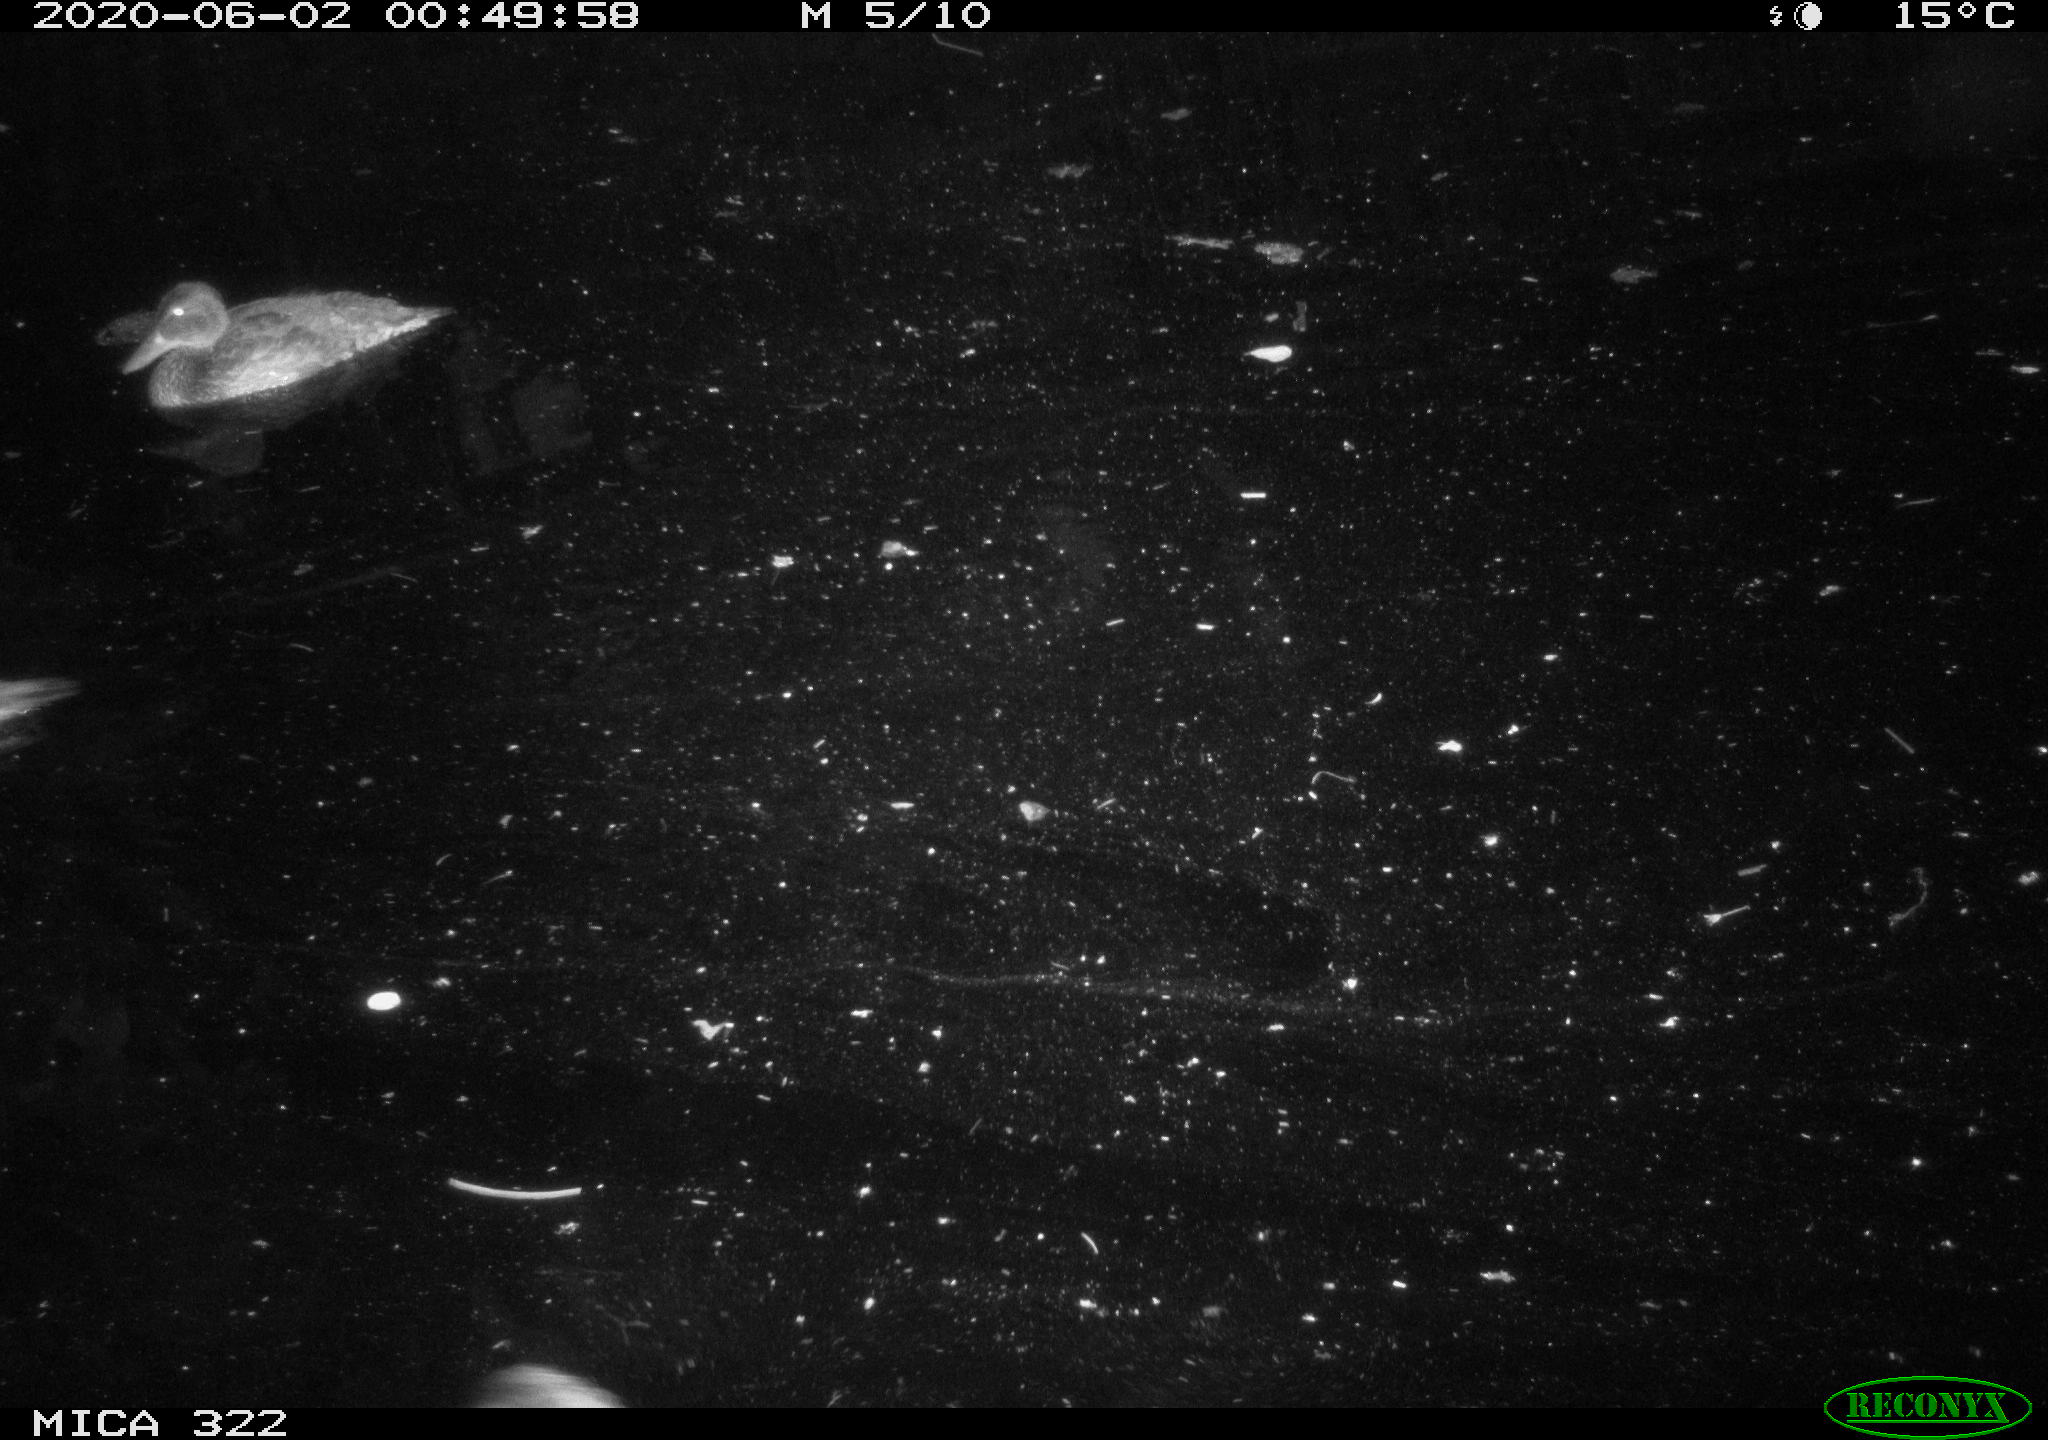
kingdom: Animalia
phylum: Chordata
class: Aves
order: Anseriformes
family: Anatidae
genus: Anas
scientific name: Anas platyrhynchos
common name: Mallard
